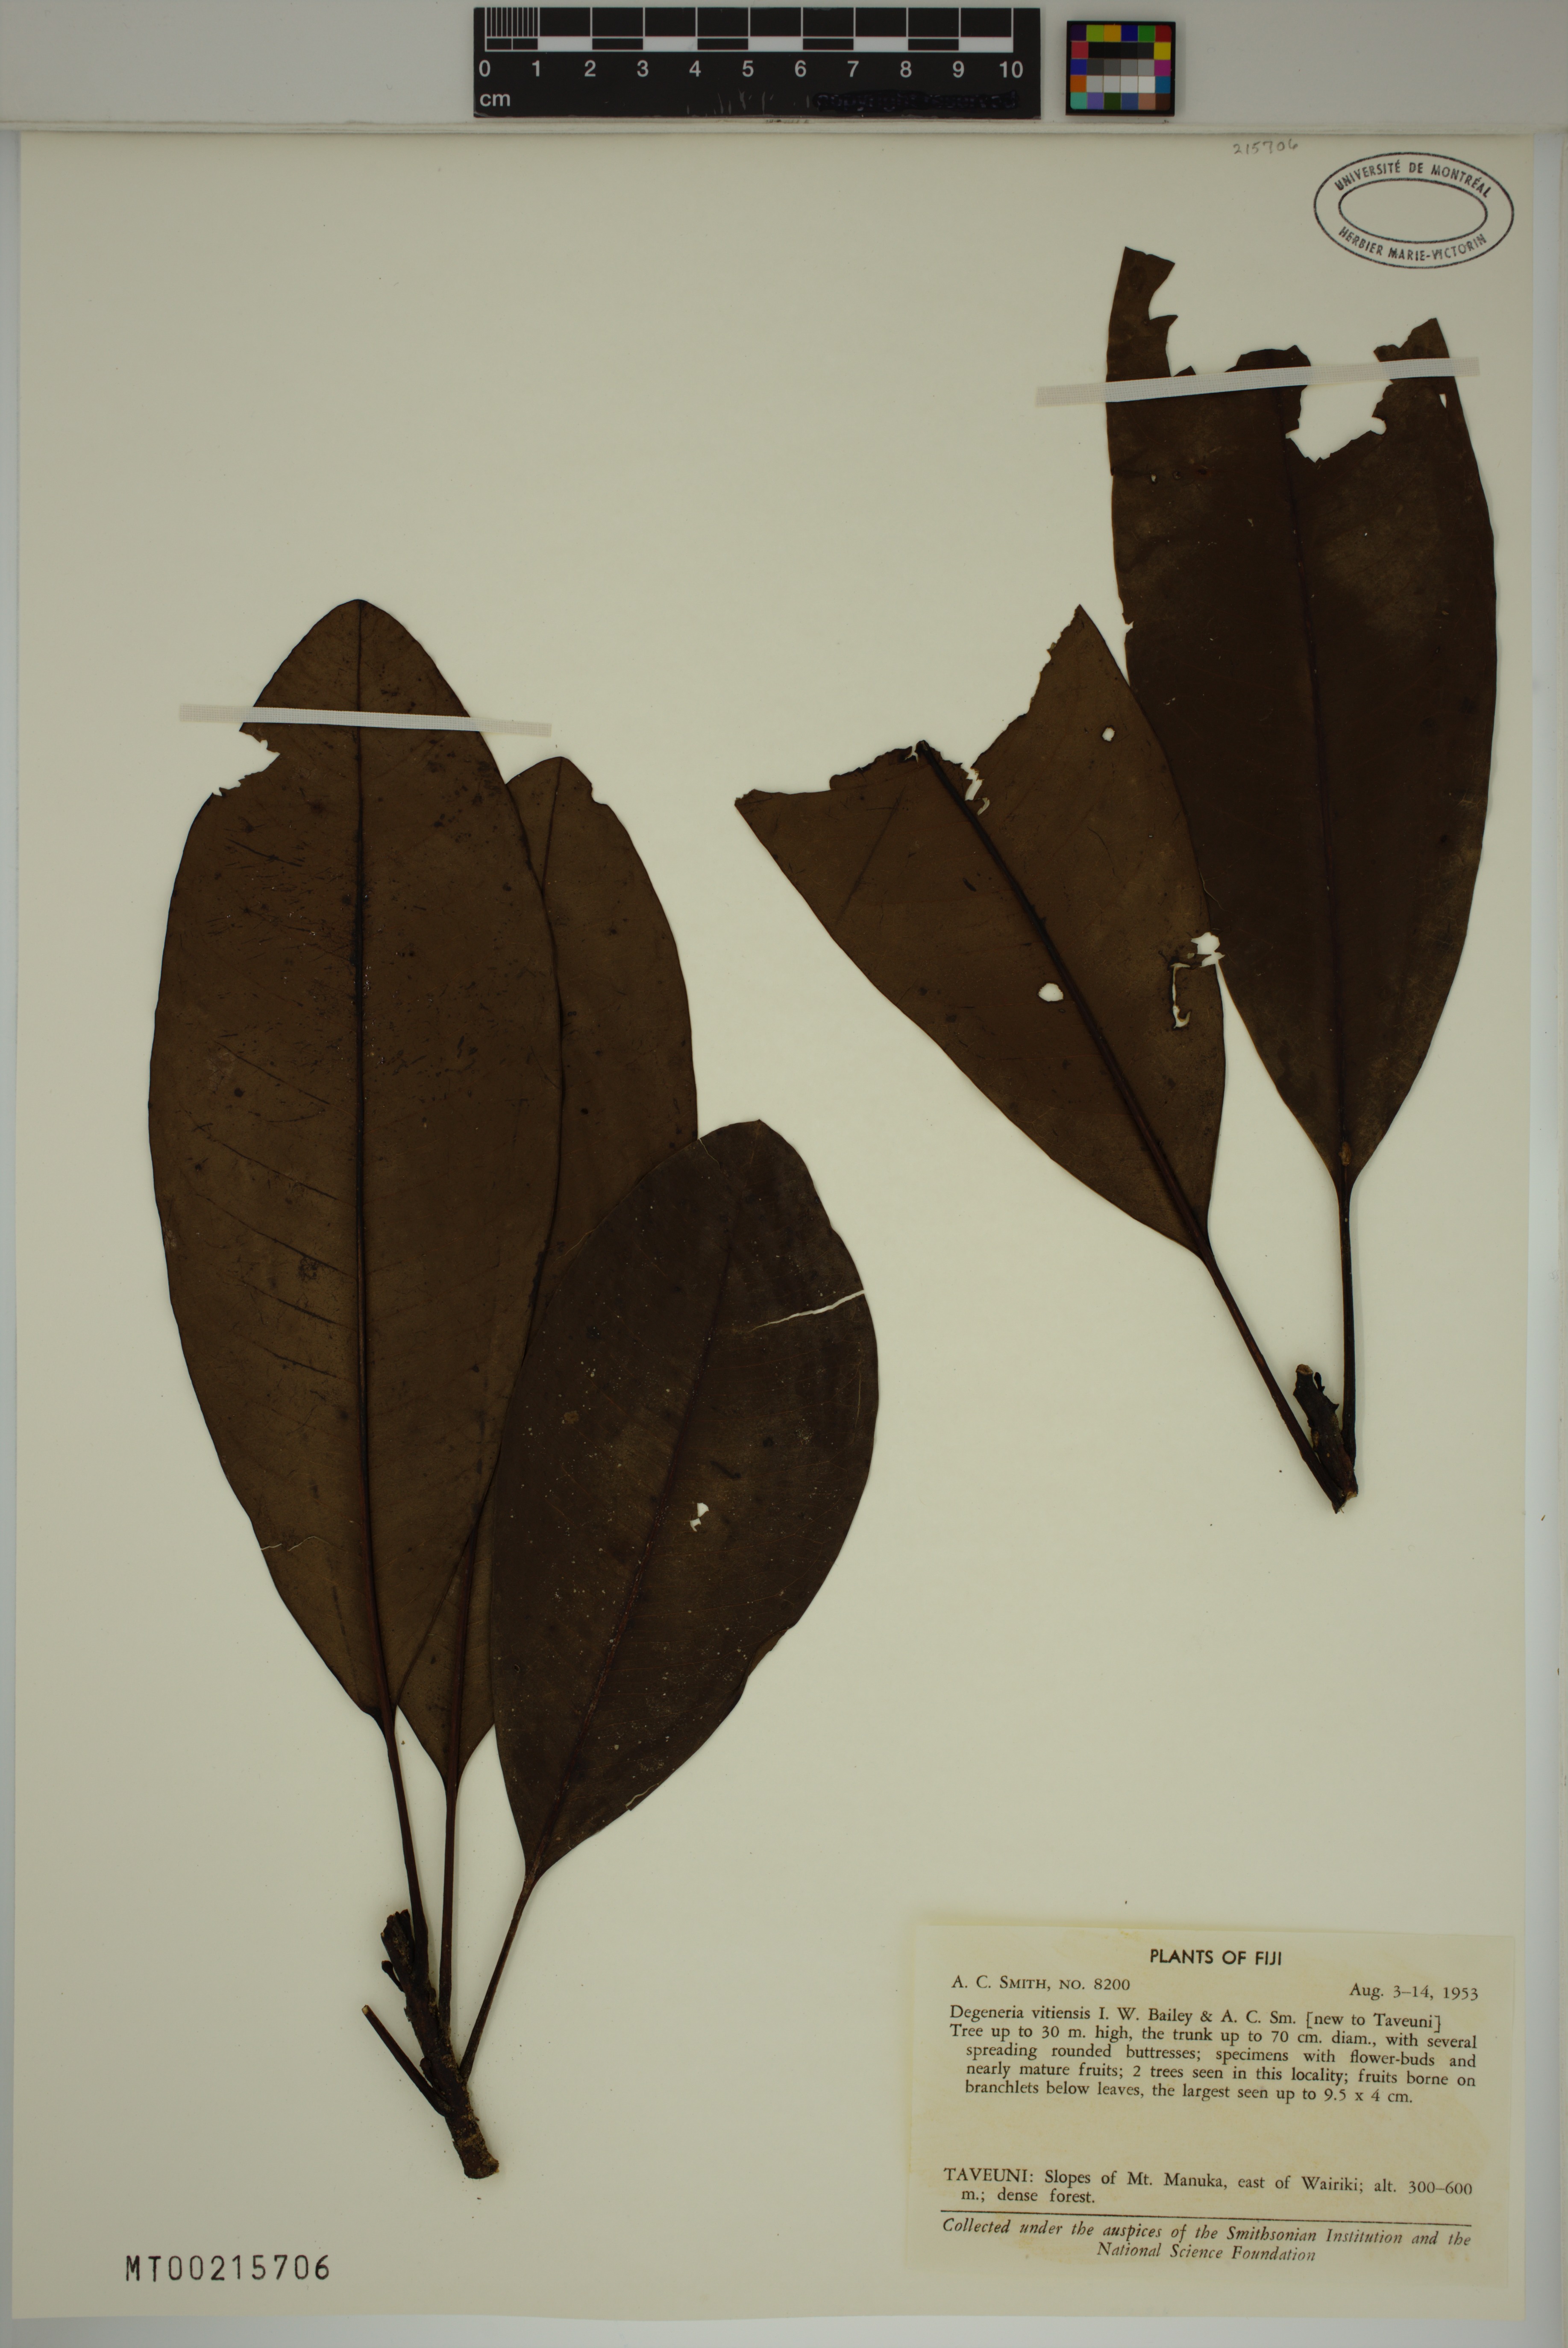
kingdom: Plantae
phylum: Tracheophyta
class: Magnoliopsida
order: Magnoliales
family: Degeneriaceae
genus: Degeneria
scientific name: Degeneria vitiensis
